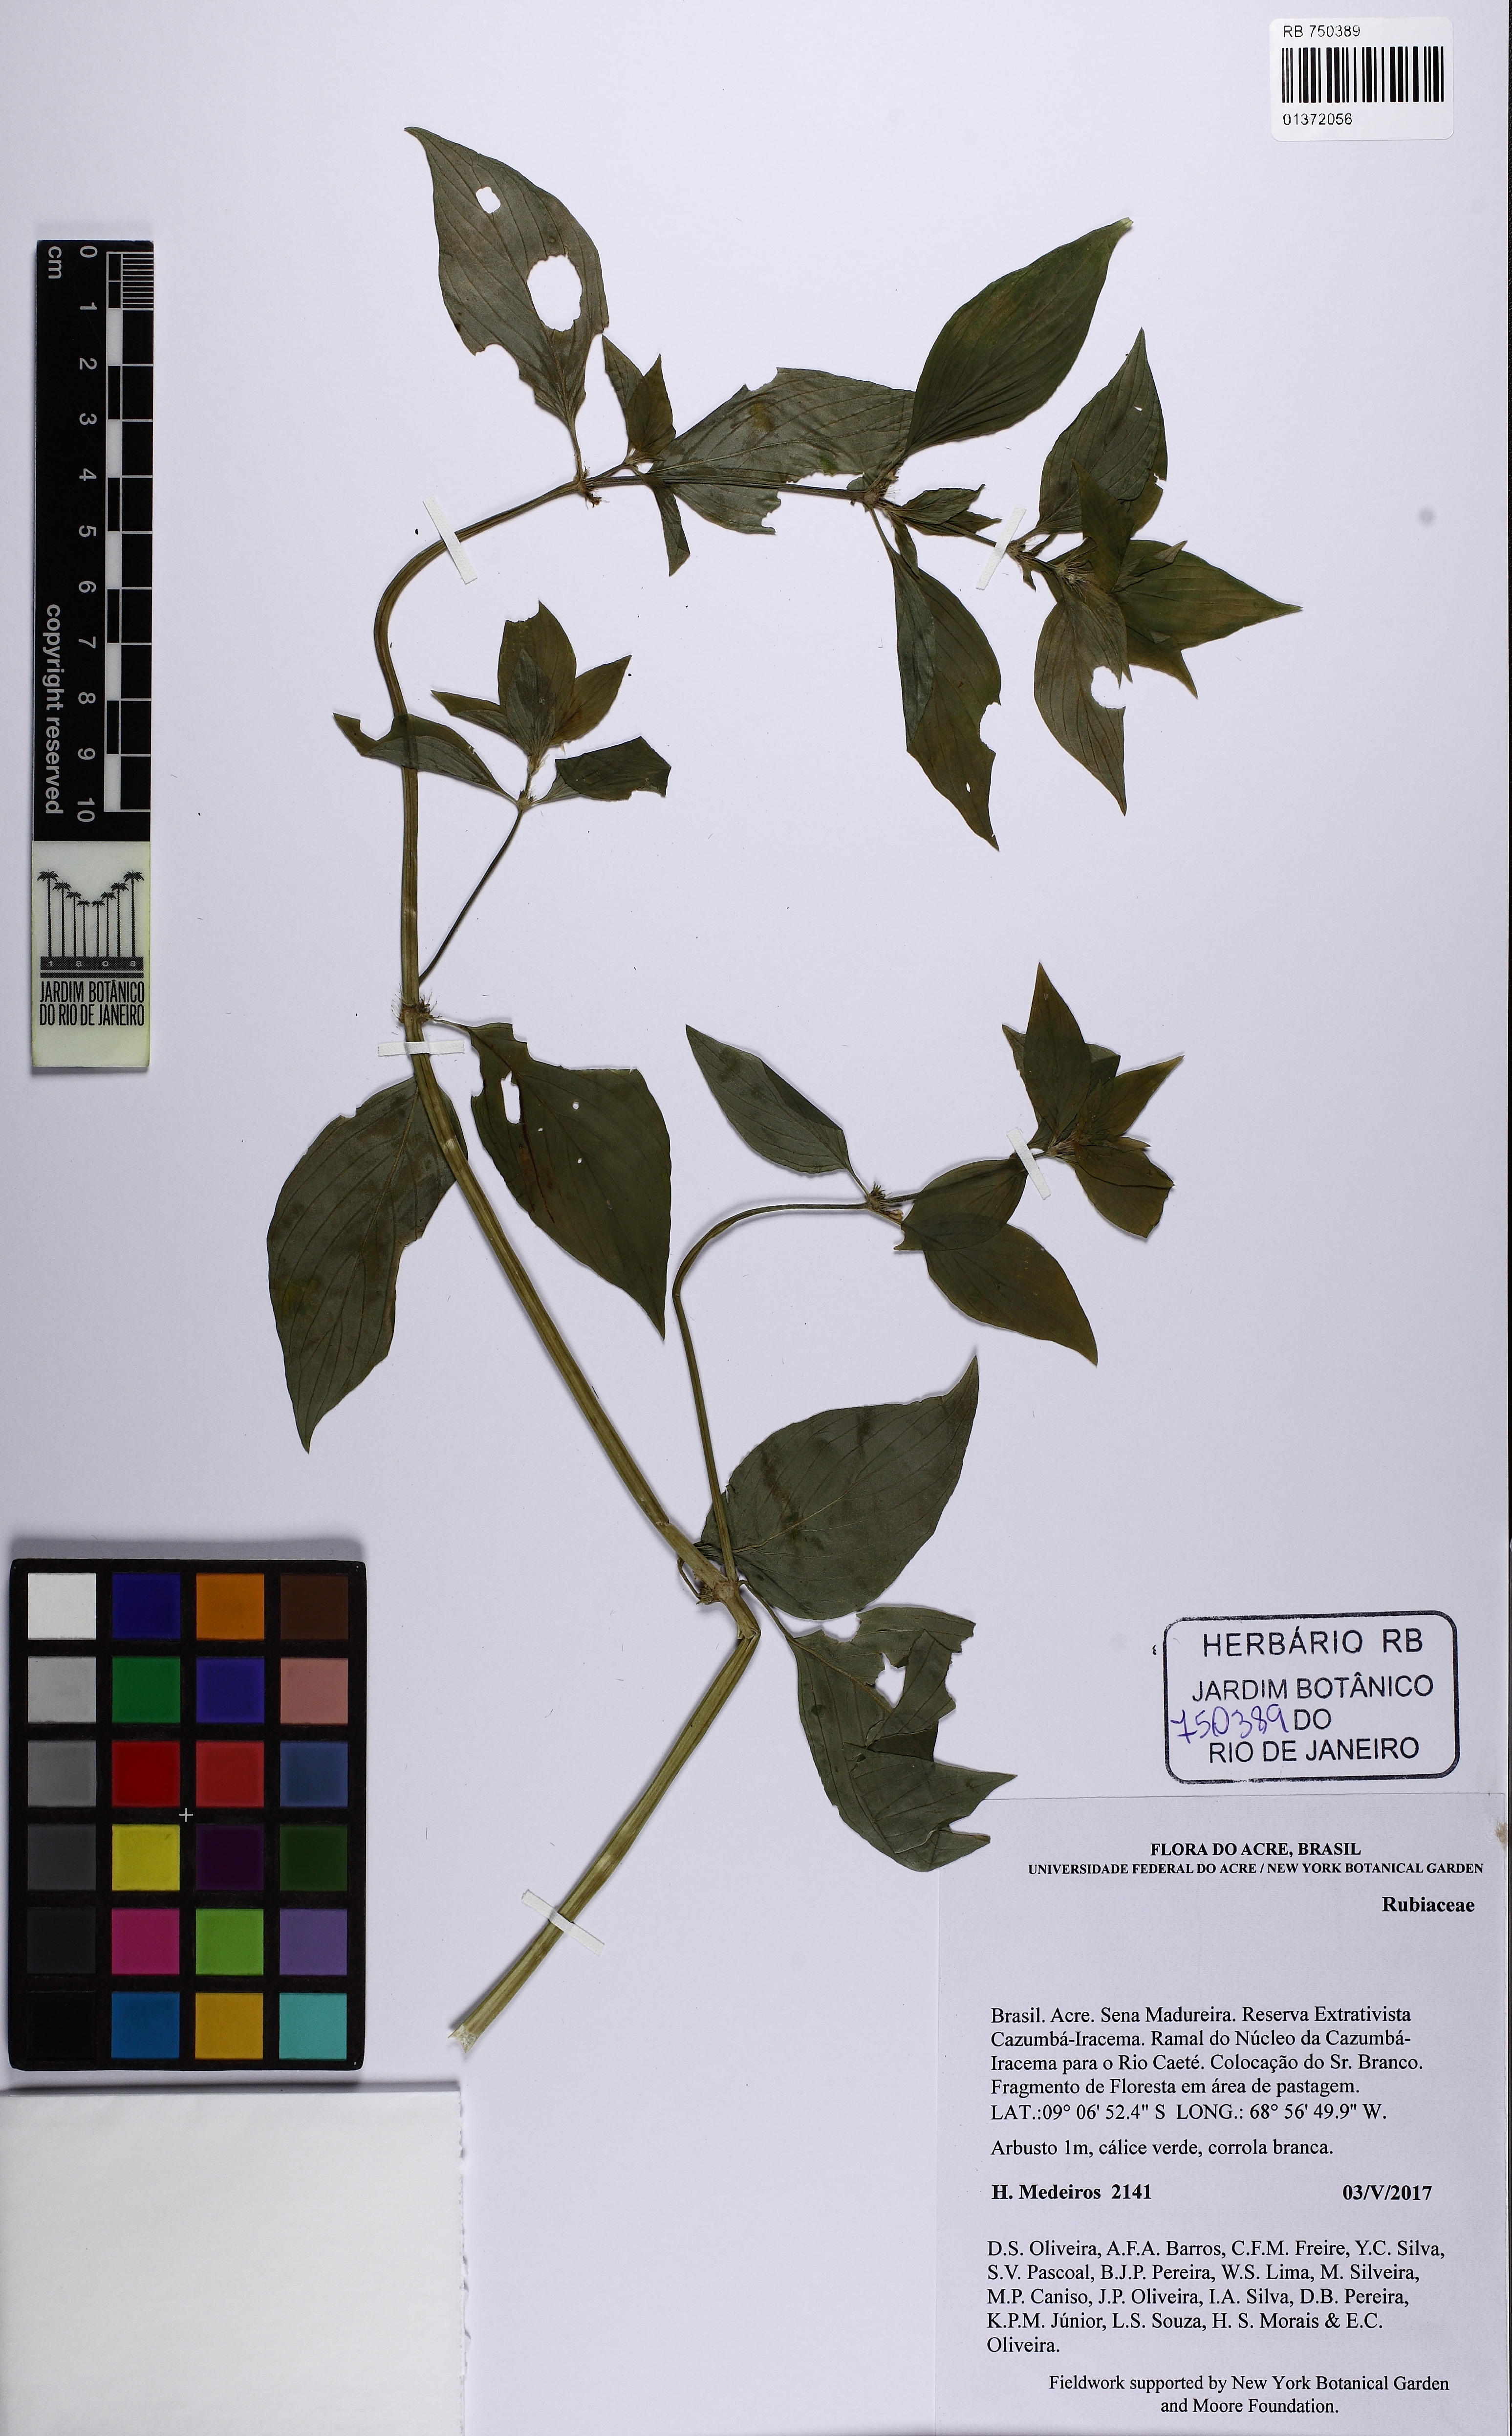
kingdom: Plantae
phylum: Tracheophyta
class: Magnoliopsida
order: Gentianales
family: Rubiaceae
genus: Spermacoce
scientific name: Spermacoce latifolia
